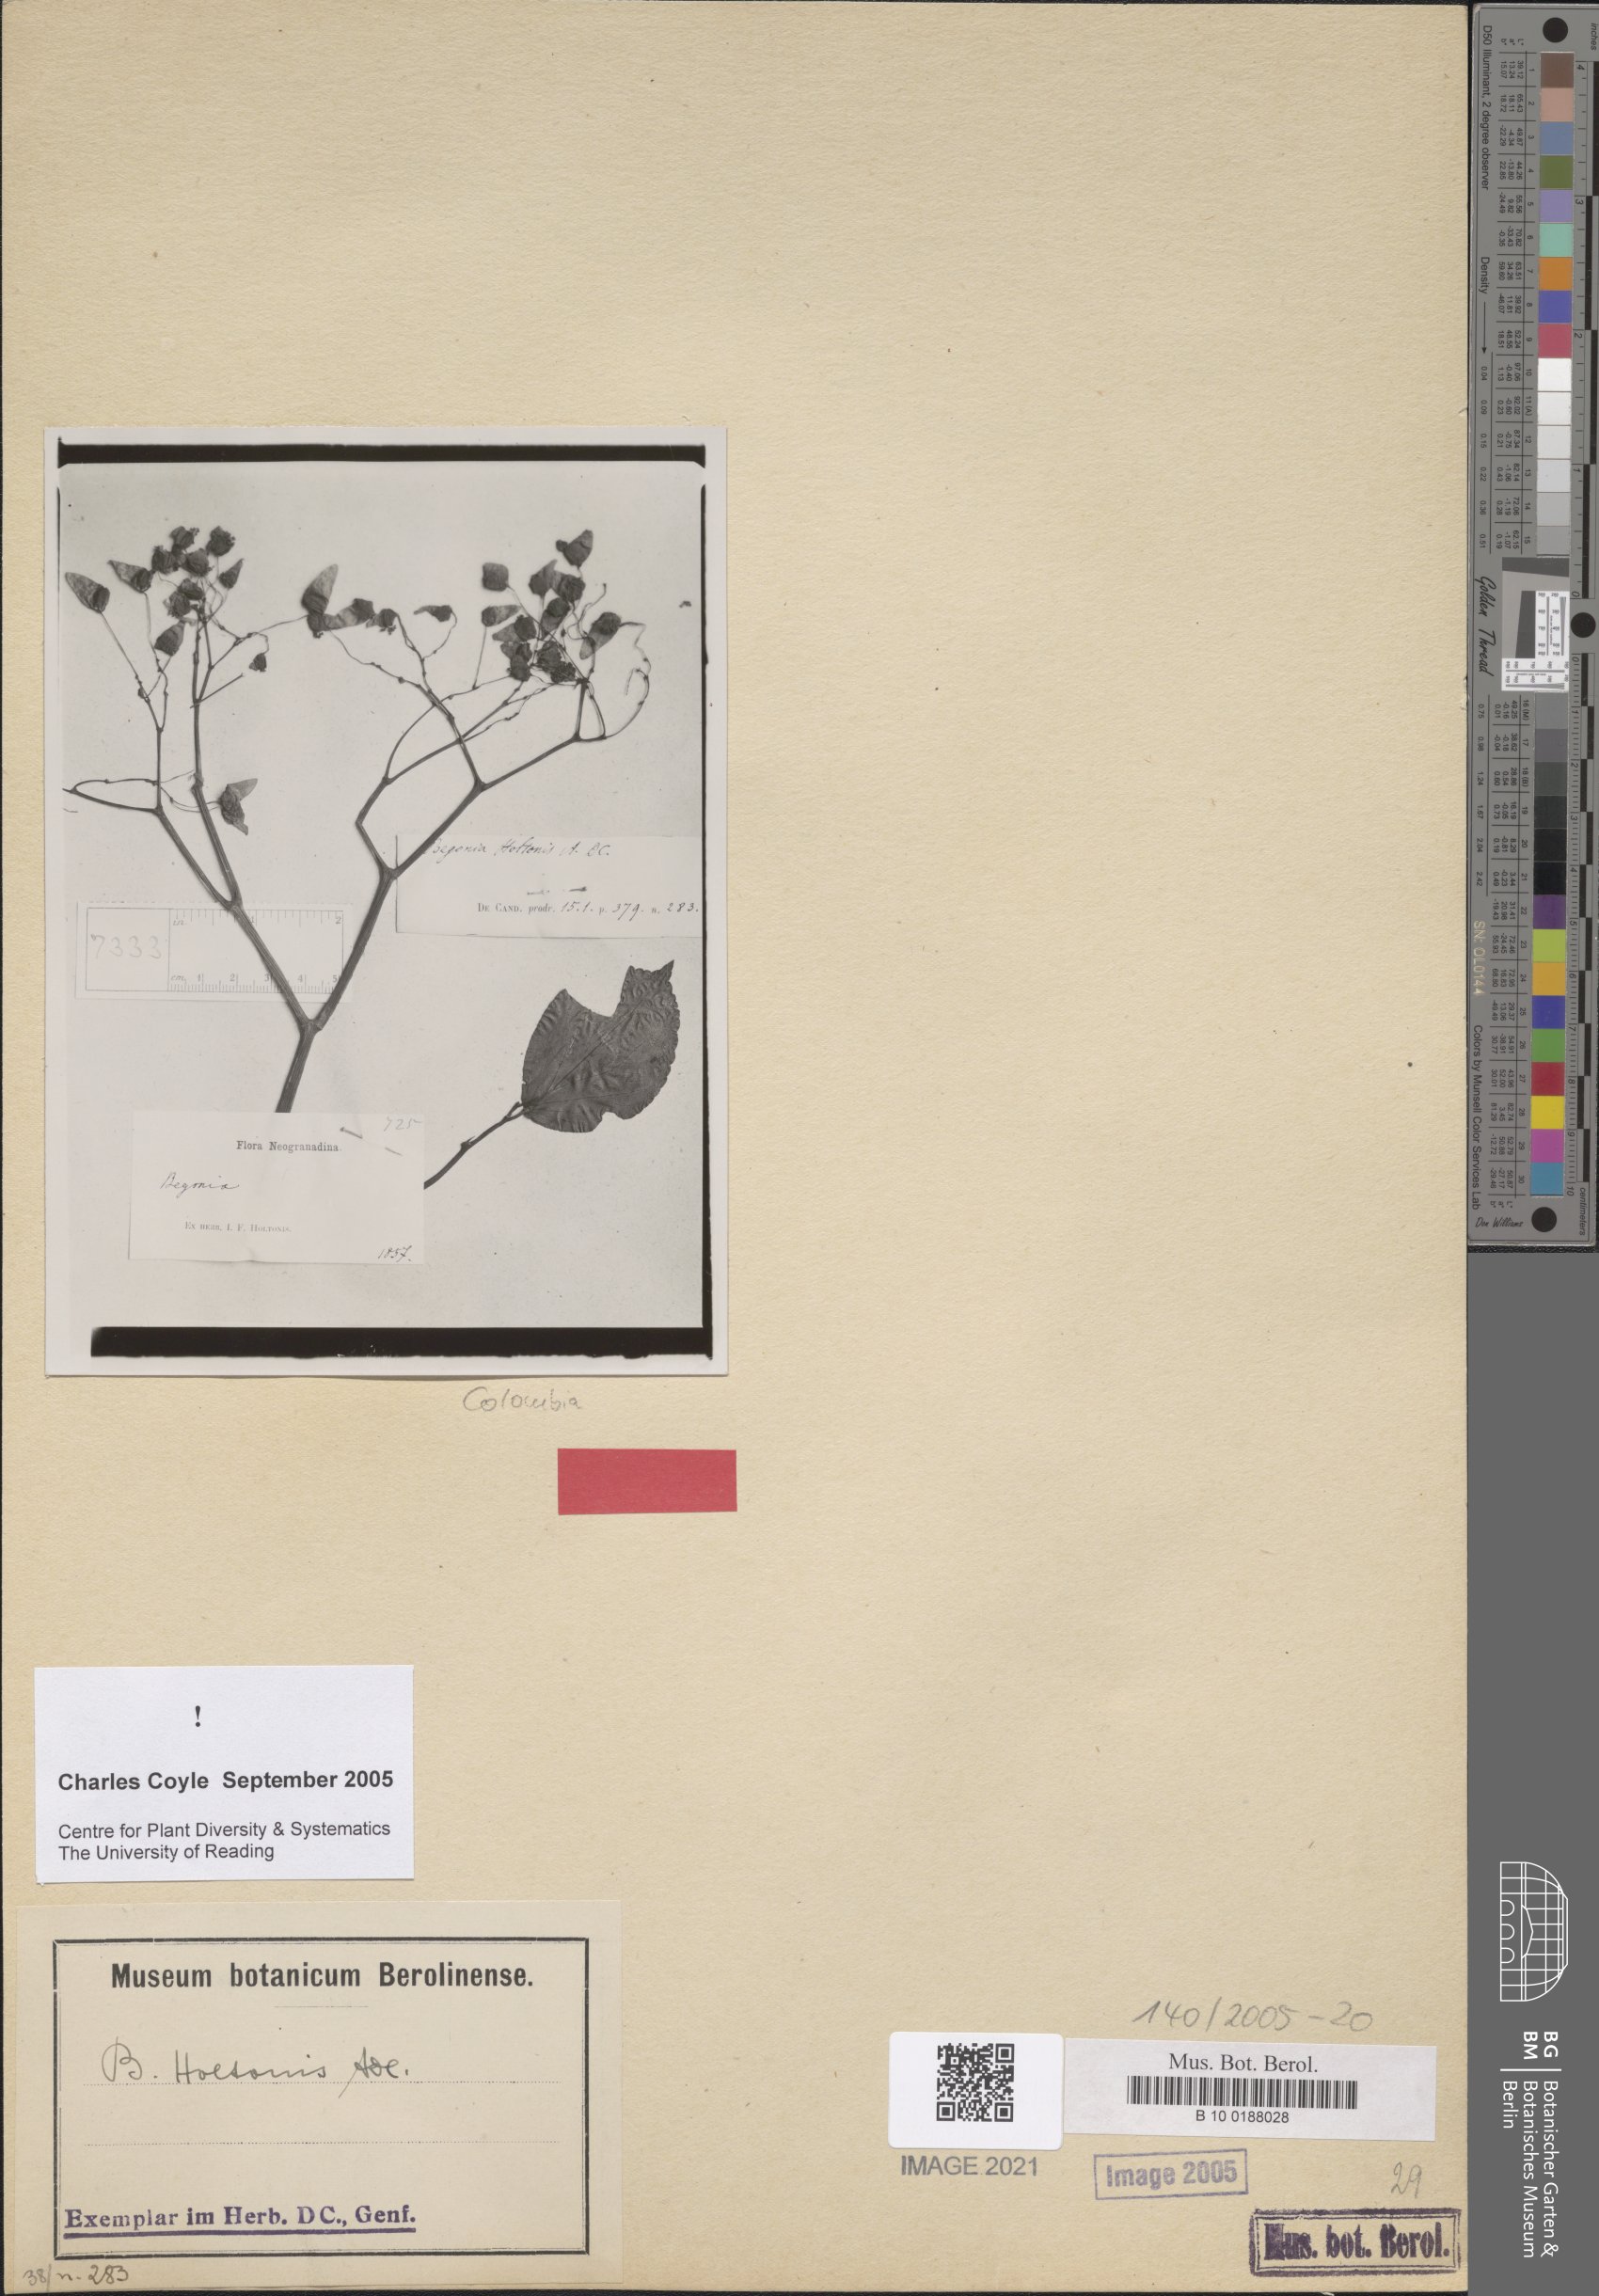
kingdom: Plantae
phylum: Tracheophyta
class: Magnoliopsida
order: Cucurbitales
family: Begoniaceae
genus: Begonia
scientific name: Begonia holtonis
